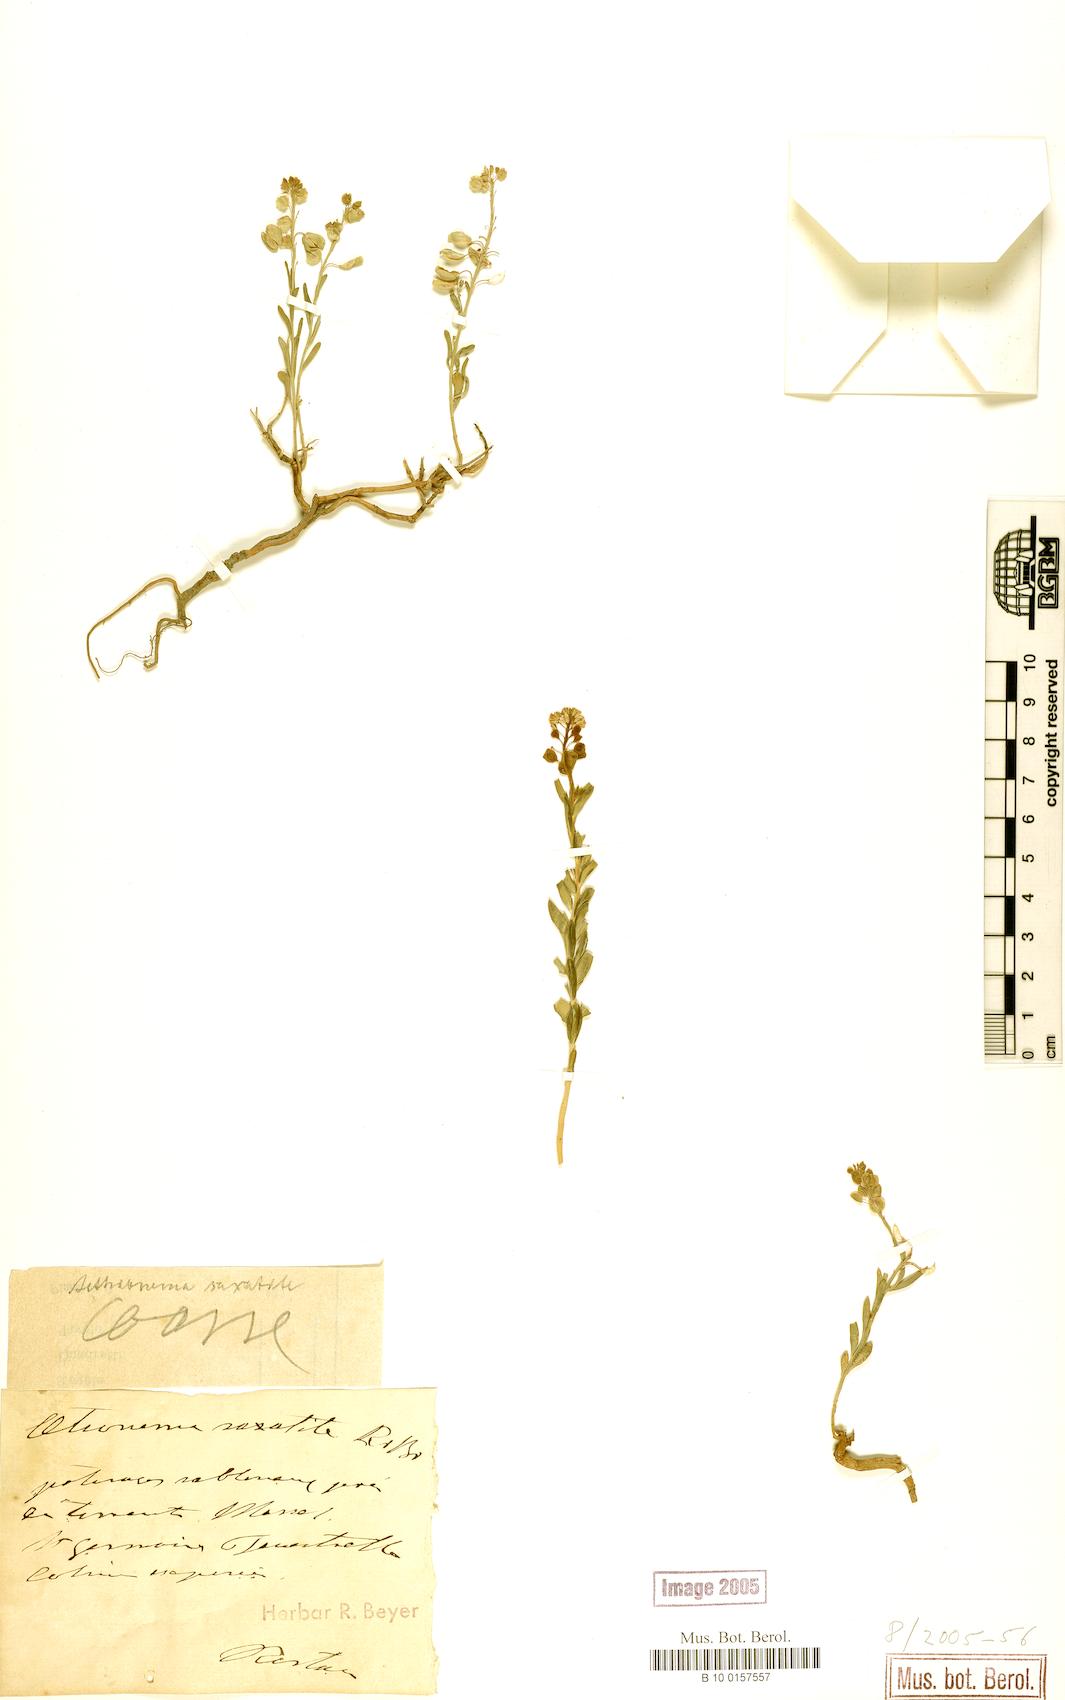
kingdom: Plantae
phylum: Tracheophyta
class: Magnoliopsida
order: Brassicales
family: Brassicaceae
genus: Aethionema
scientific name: Aethionema saxatile
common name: Burnt candytuft
